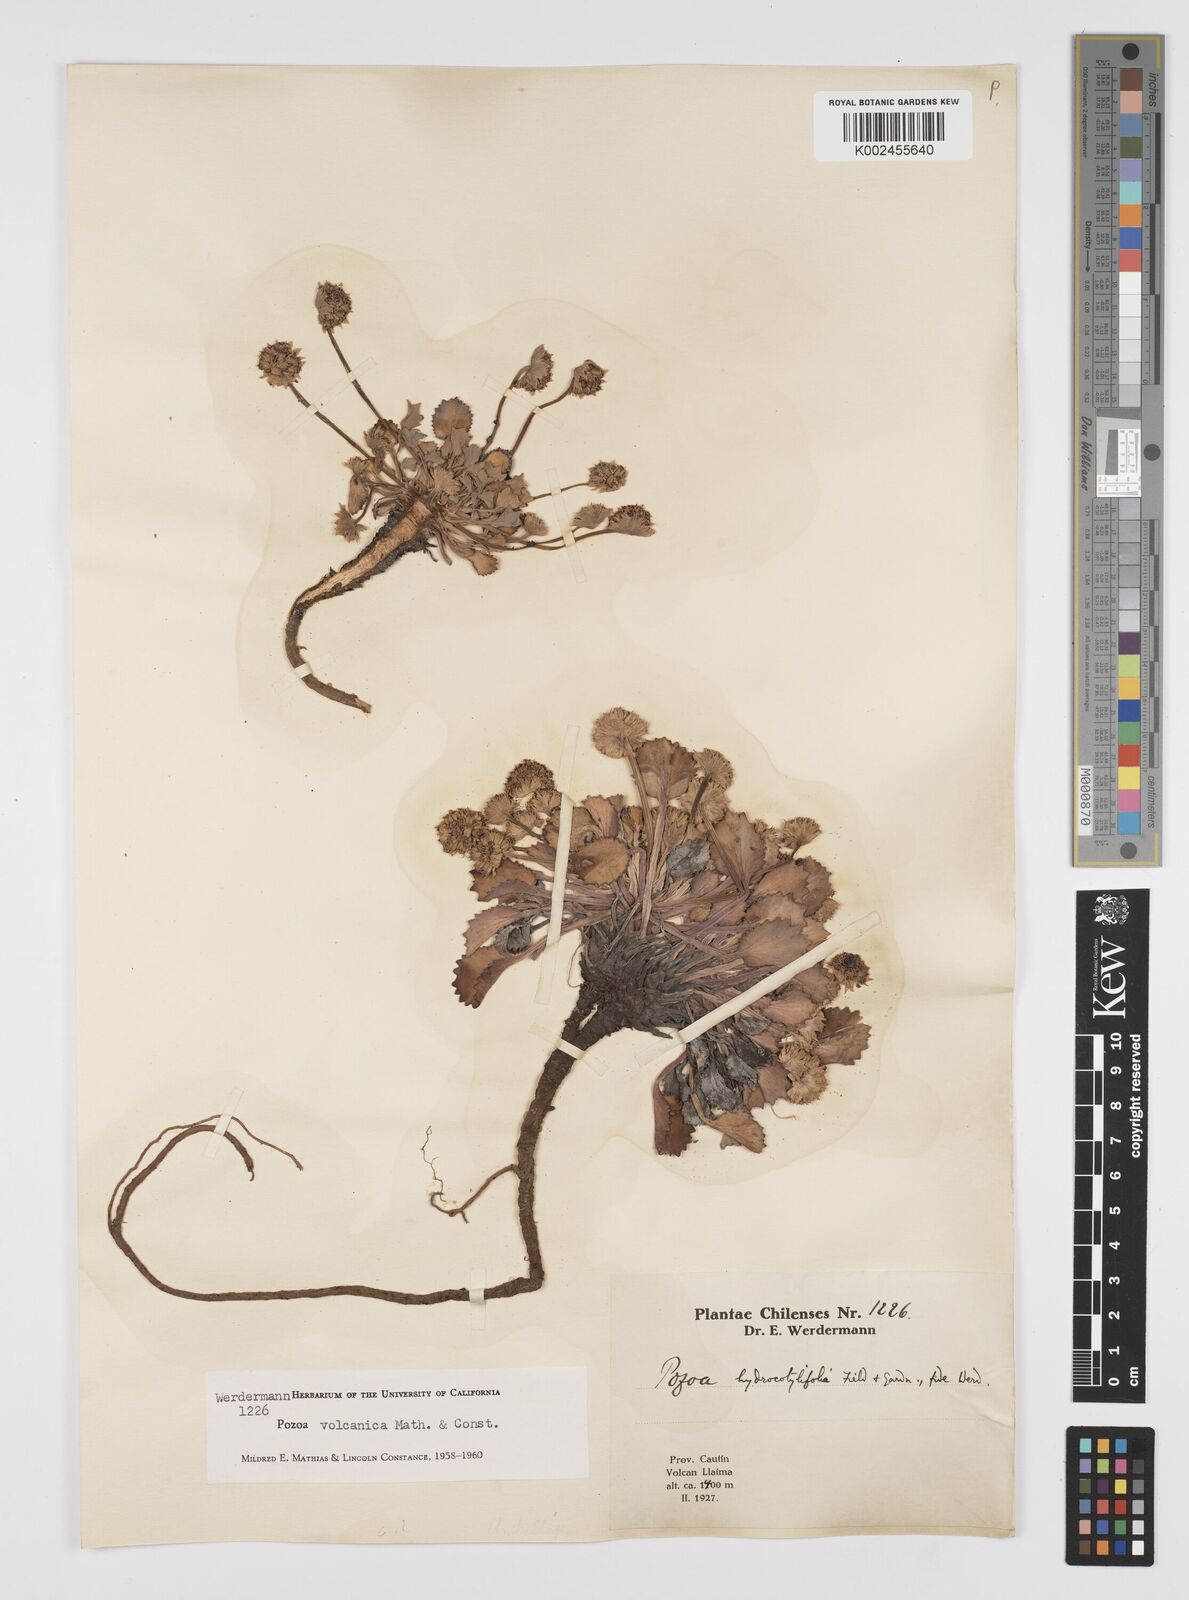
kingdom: Plantae
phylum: Tracheophyta
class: Magnoliopsida
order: Apiales
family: Apiaceae
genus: Pozoa
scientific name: Pozoa volcanica
